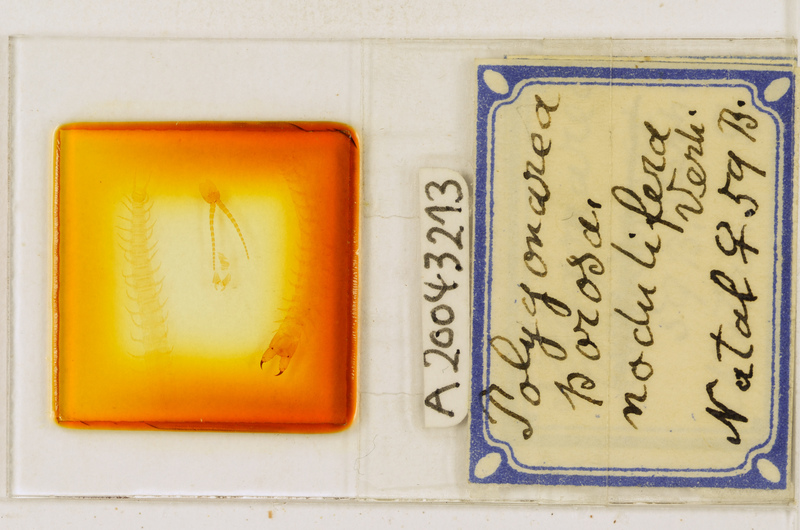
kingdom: Animalia
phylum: Arthropoda
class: Chilopoda
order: Geophilomorpha
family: Geophilidae
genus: Polygonarea
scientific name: Polygonarea africana
